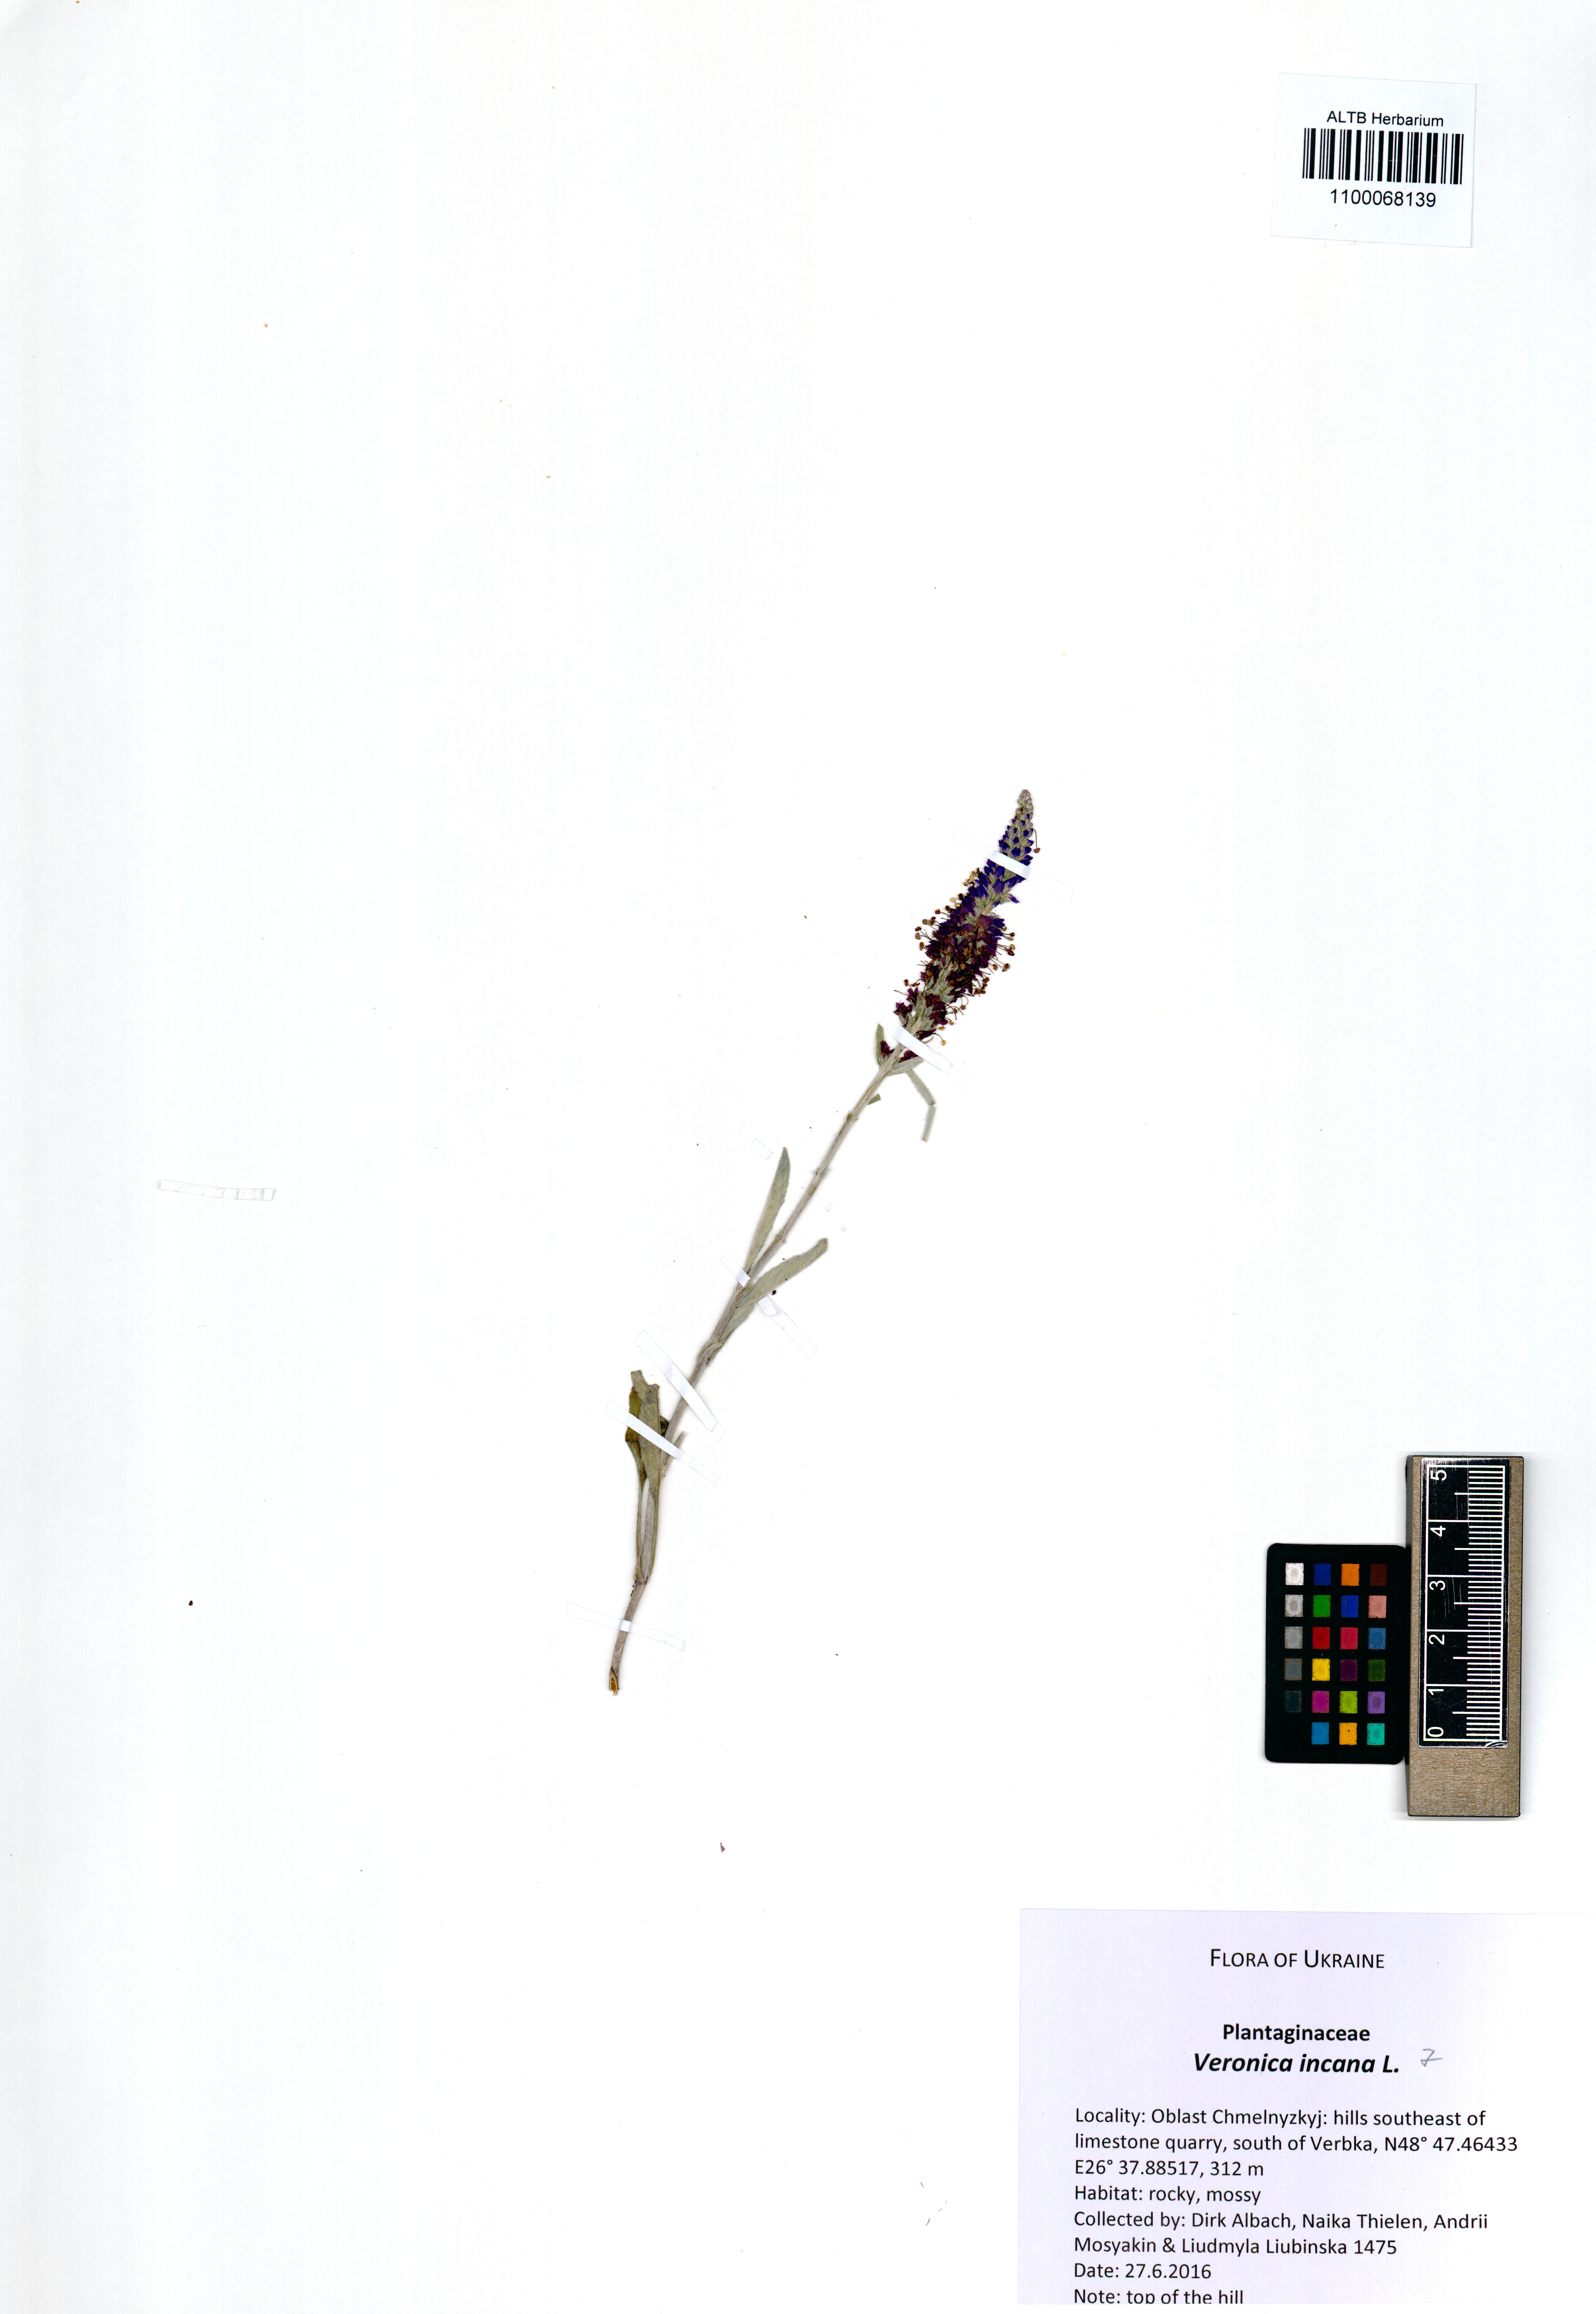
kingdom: Plantae
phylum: Tracheophyta
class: Magnoliopsida
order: Lamiales
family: Plantaginaceae
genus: Veronica
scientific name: Veronica incana
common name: Silver speedwell
